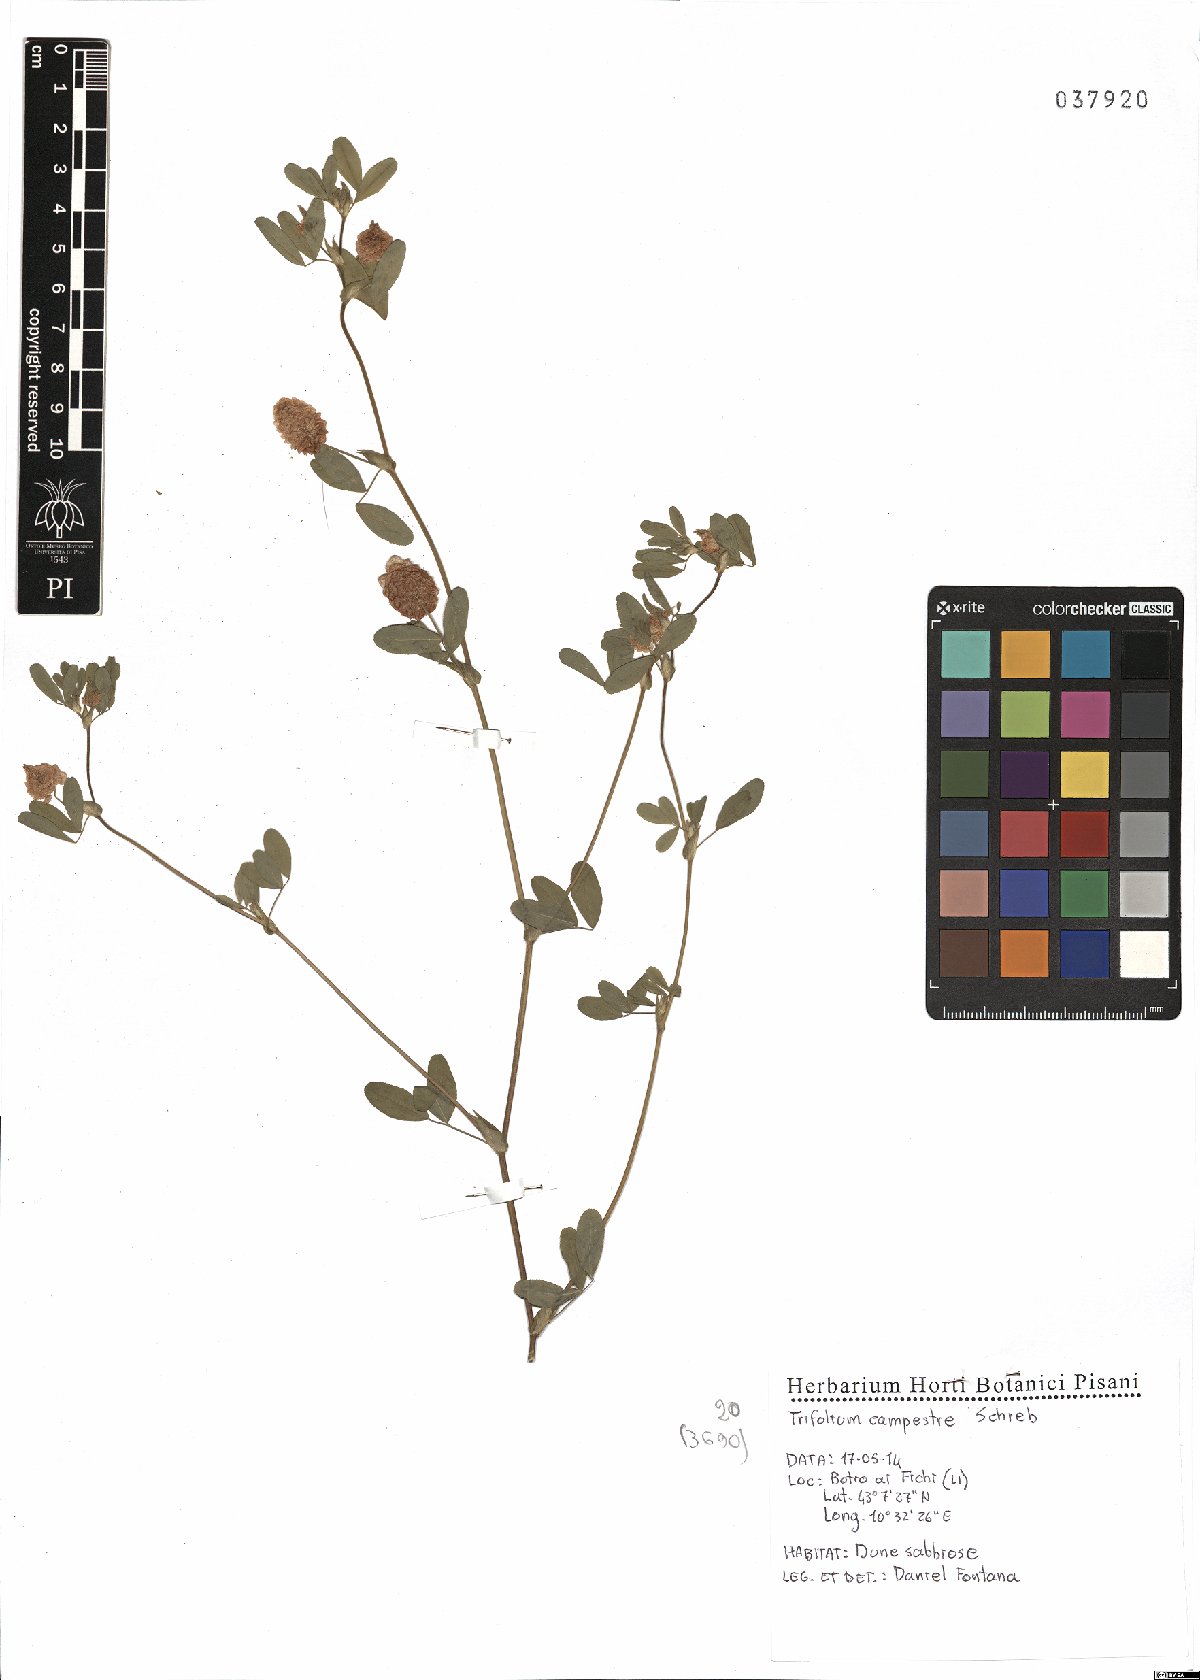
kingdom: Plantae
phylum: Tracheophyta
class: Magnoliopsida
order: Fabales
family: Fabaceae
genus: Trifolium
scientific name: Trifolium campestre
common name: Field clover
